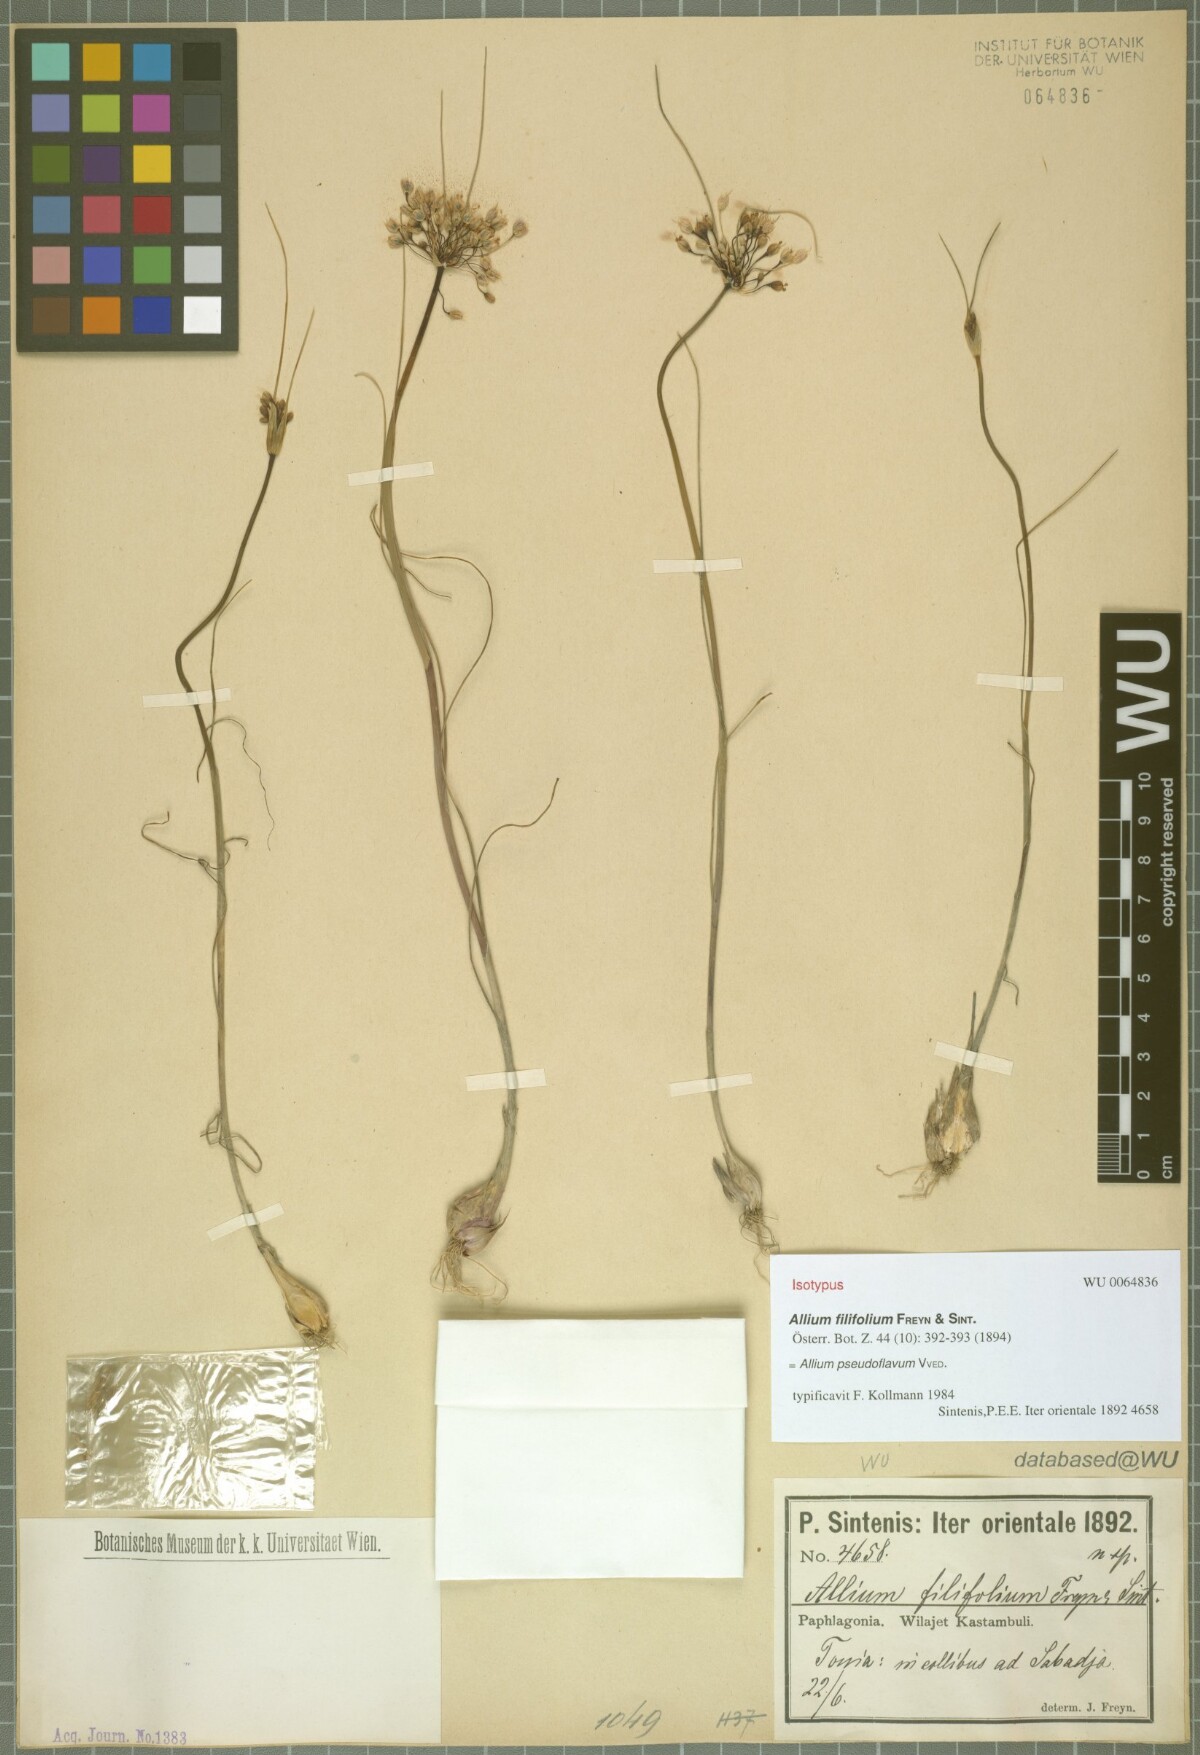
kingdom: Plantae
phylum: Tracheophyta
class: Liliopsida
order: Asparagales
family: Amaryllidaceae
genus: Allium
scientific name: Allium pseudoflavum
